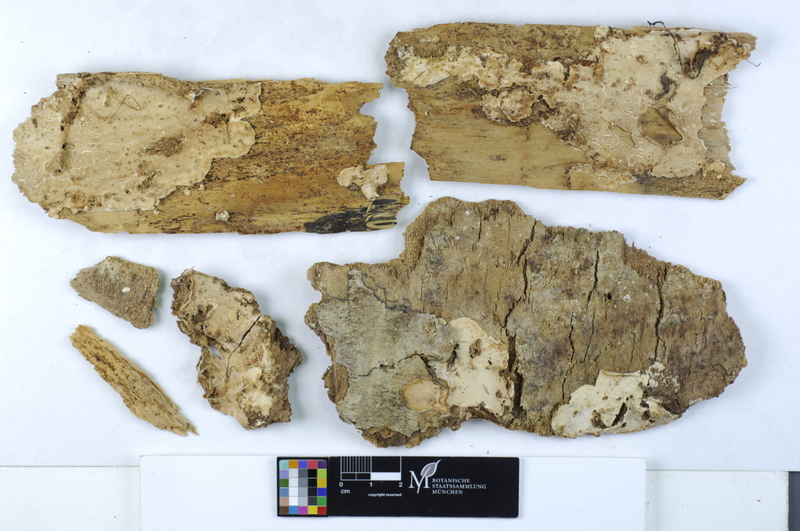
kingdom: Fungi
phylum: Basidiomycota
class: Agaricomycetes
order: Cantharellales
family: Botryobasidiaceae
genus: Botryobasidium
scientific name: Botryobasidium subcoronatum
